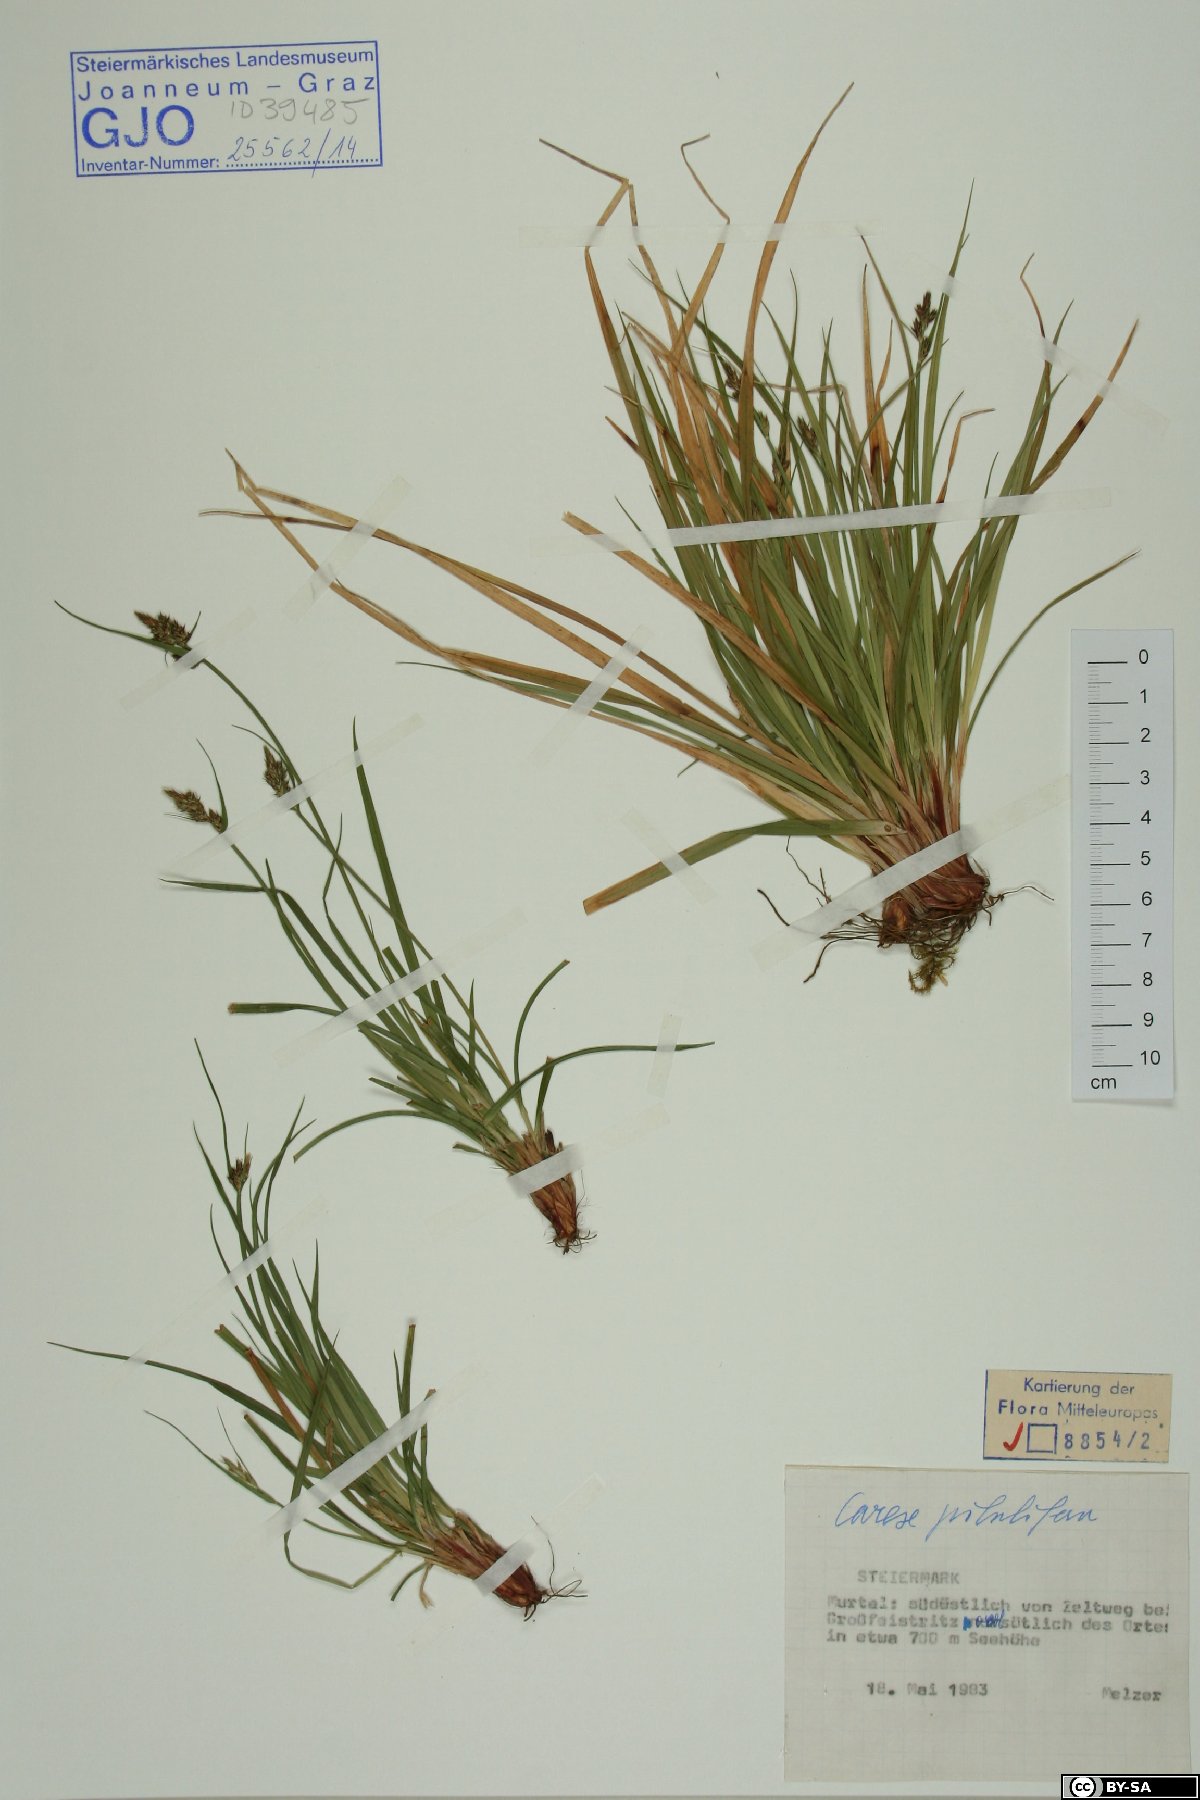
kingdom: Plantae
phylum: Tracheophyta
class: Liliopsida
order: Poales
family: Cyperaceae
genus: Carex
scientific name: Carex pilulifera
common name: Pill sedge
